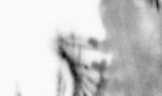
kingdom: Animalia
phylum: Annelida
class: Polychaeta
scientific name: Polychaeta
